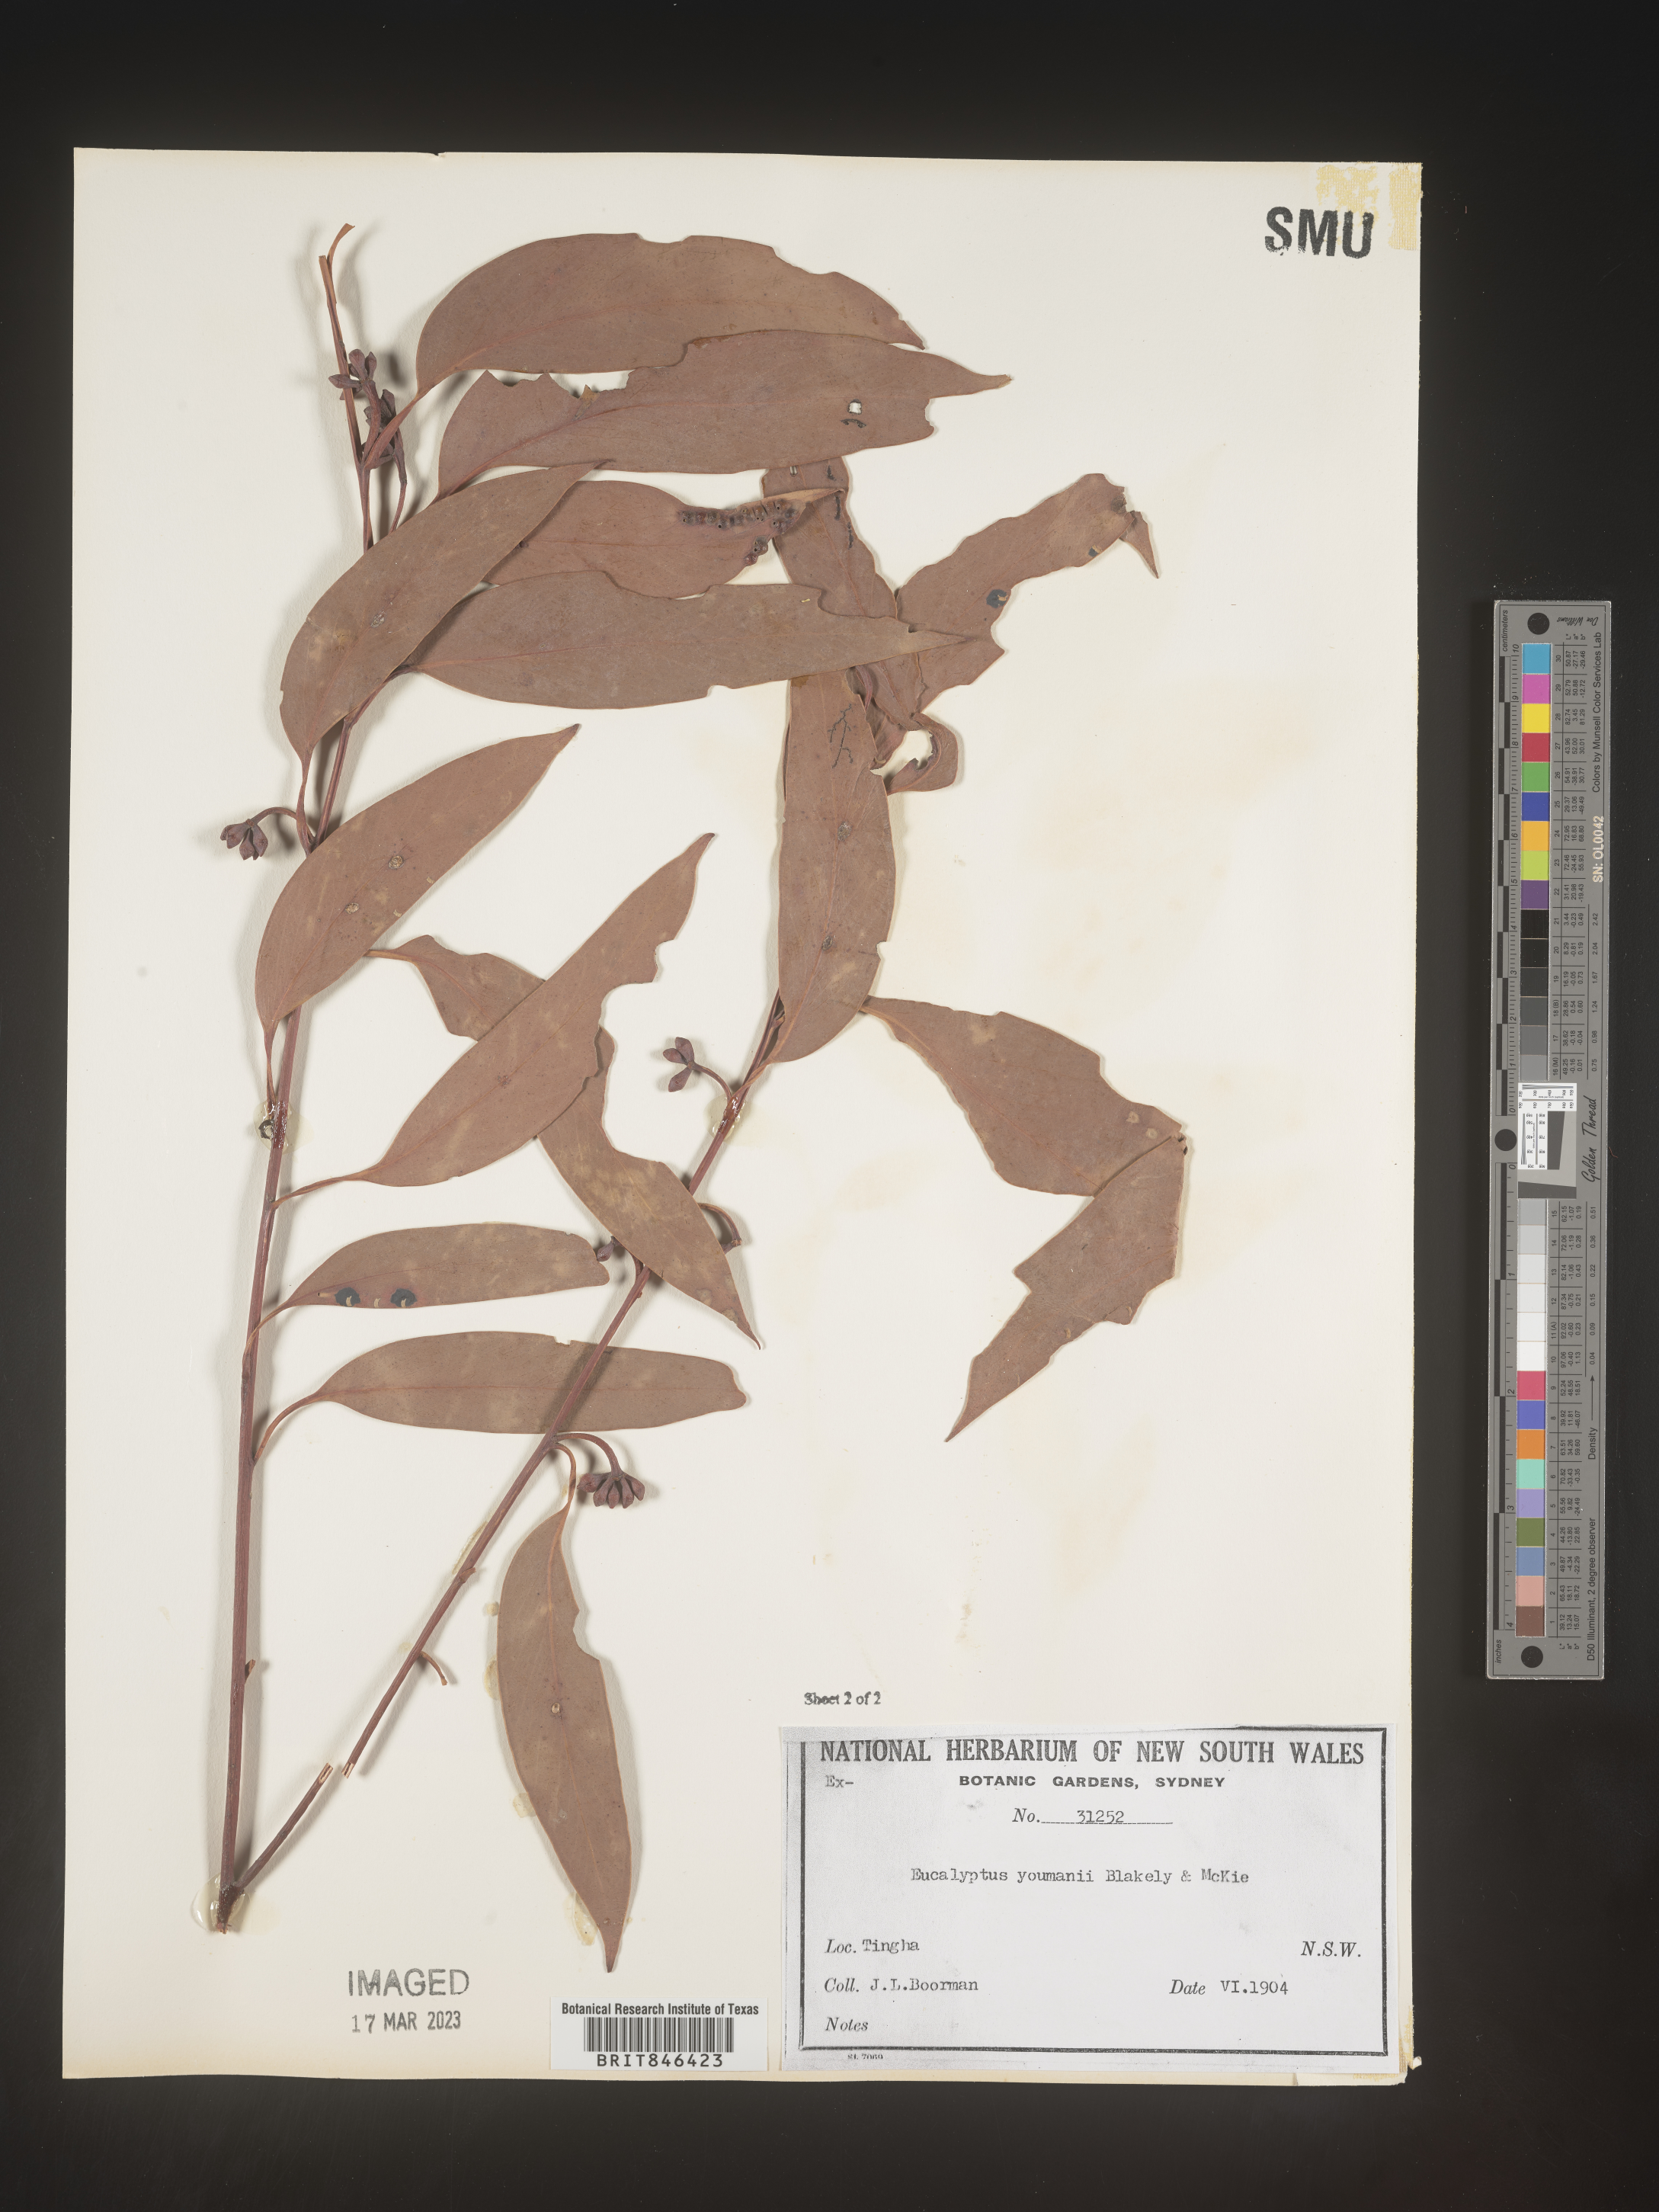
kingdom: Plantae
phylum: Tracheophyta
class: Magnoliopsida
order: Myrtales
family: Myrtaceae
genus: Eucalyptus
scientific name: Eucalyptus
